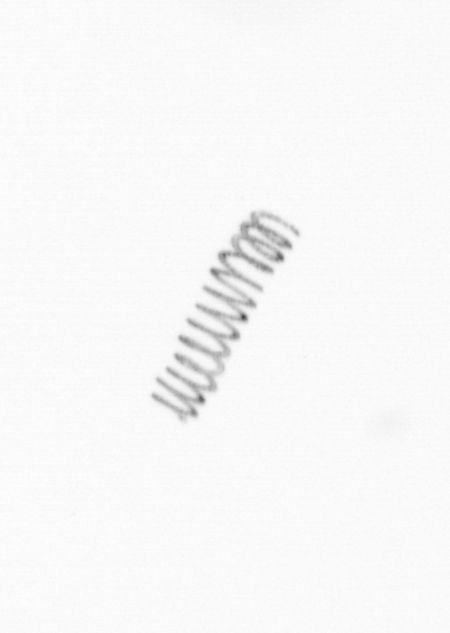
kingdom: Chromista
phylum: Ochrophyta
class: Bacillariophyceae
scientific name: Bacillariophyceae
